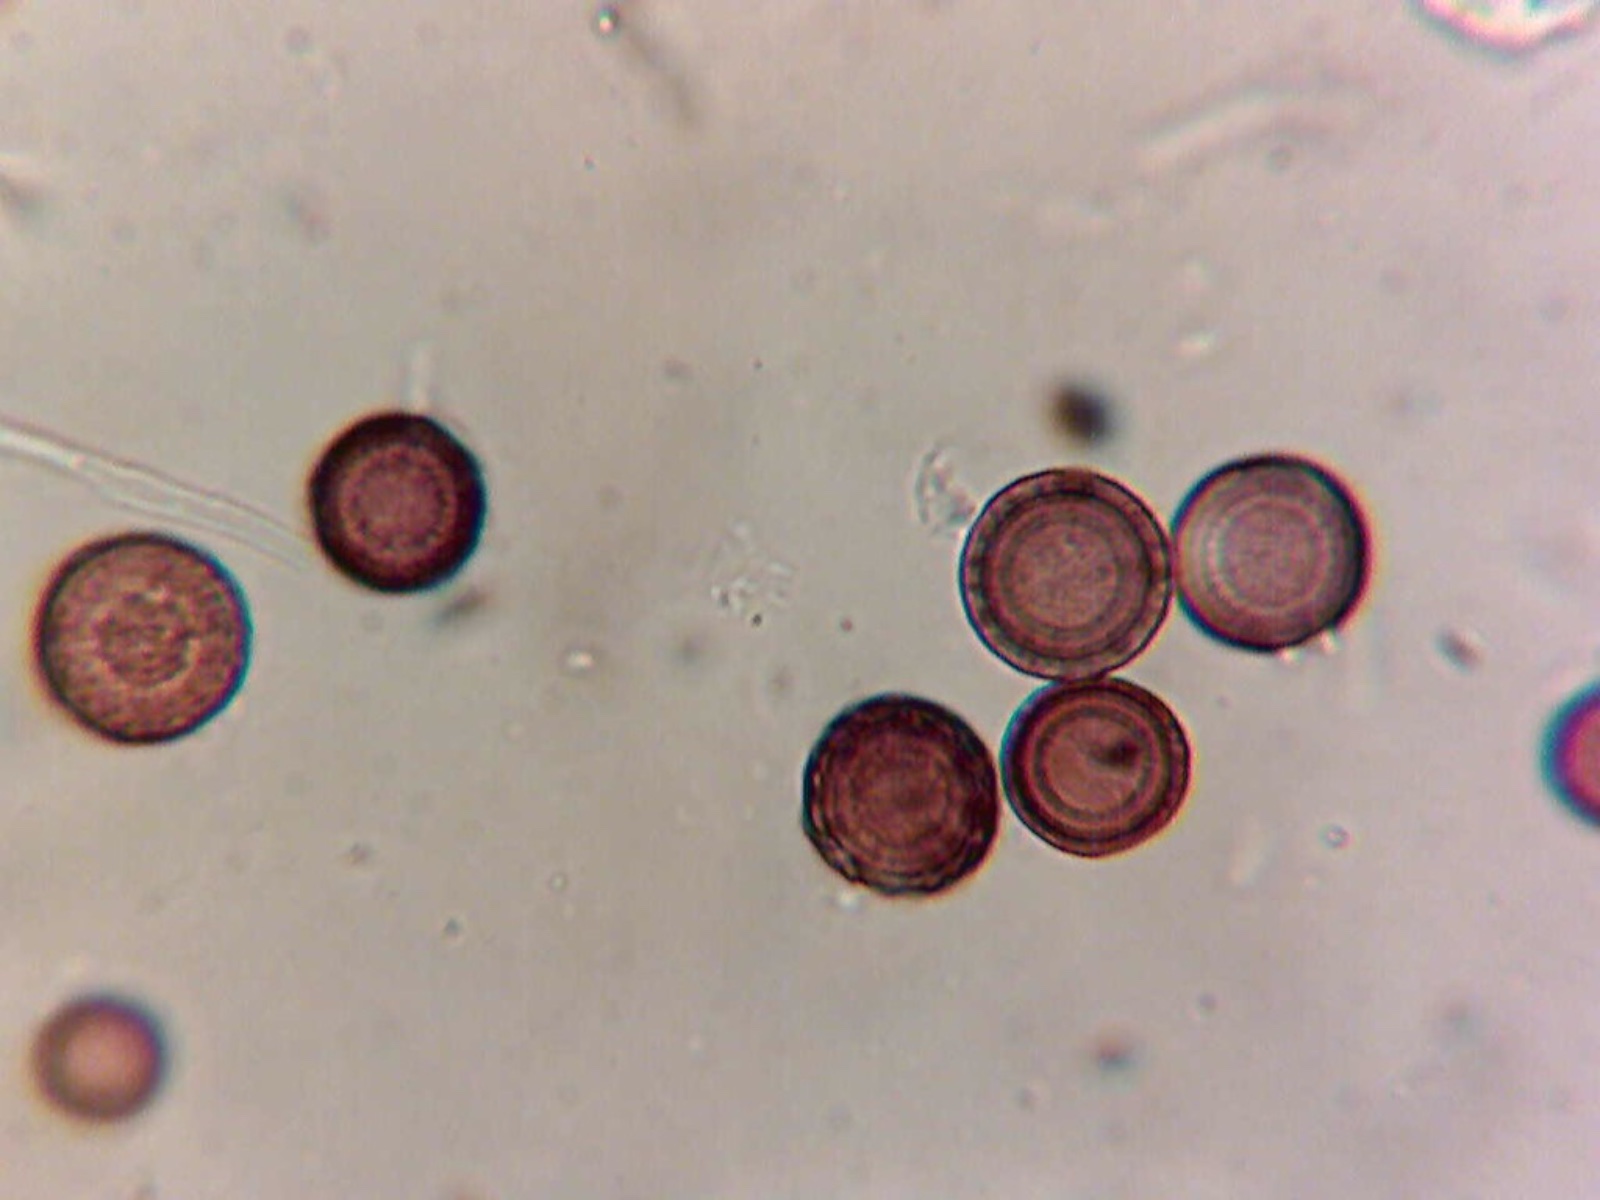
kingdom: Fungi
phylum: Ascomycota
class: Eurotiomycetes
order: Eurotiales
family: Elaphomycetaceae
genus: Elaphomyces
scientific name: Elaphomyces muricatus
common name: vortet hjortetrøffel
